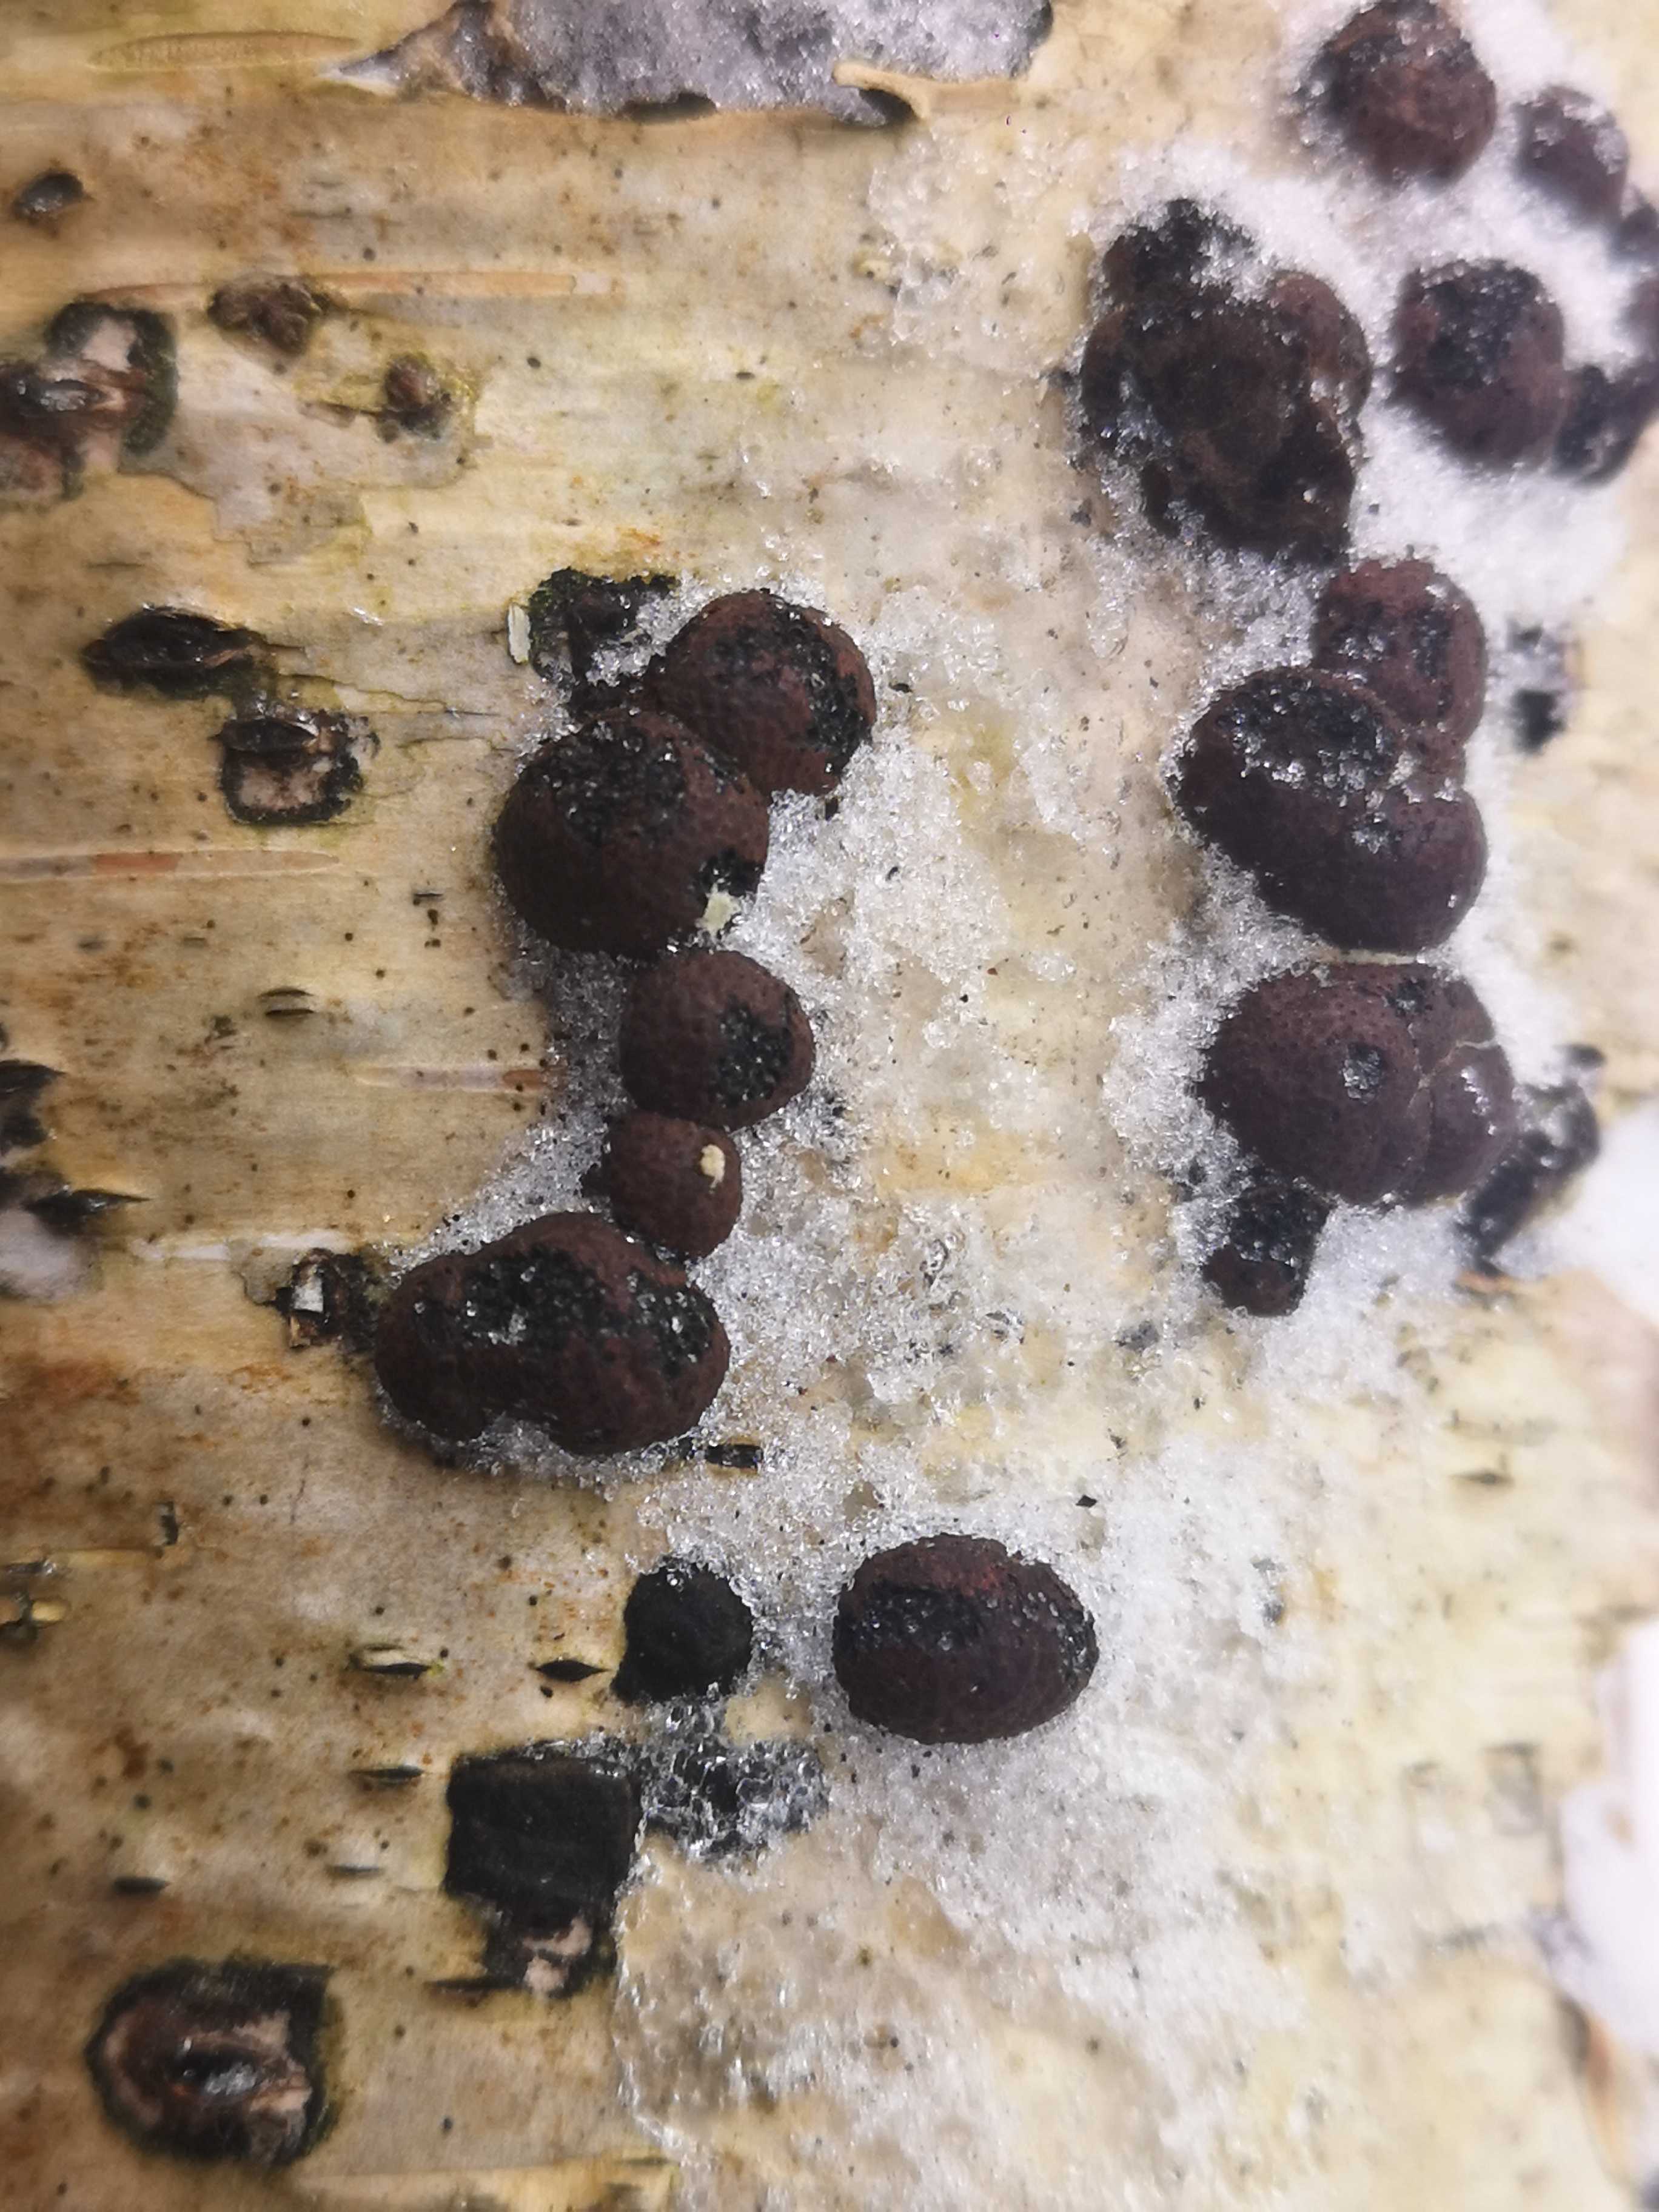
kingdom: Fungi
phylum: Ascomycota
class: Sordariomycetes
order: Xylariales
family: Hypoxylaceae
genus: Hypoxylon
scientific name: Hypoxylon howeanum
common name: halvkugleformet kulbær
